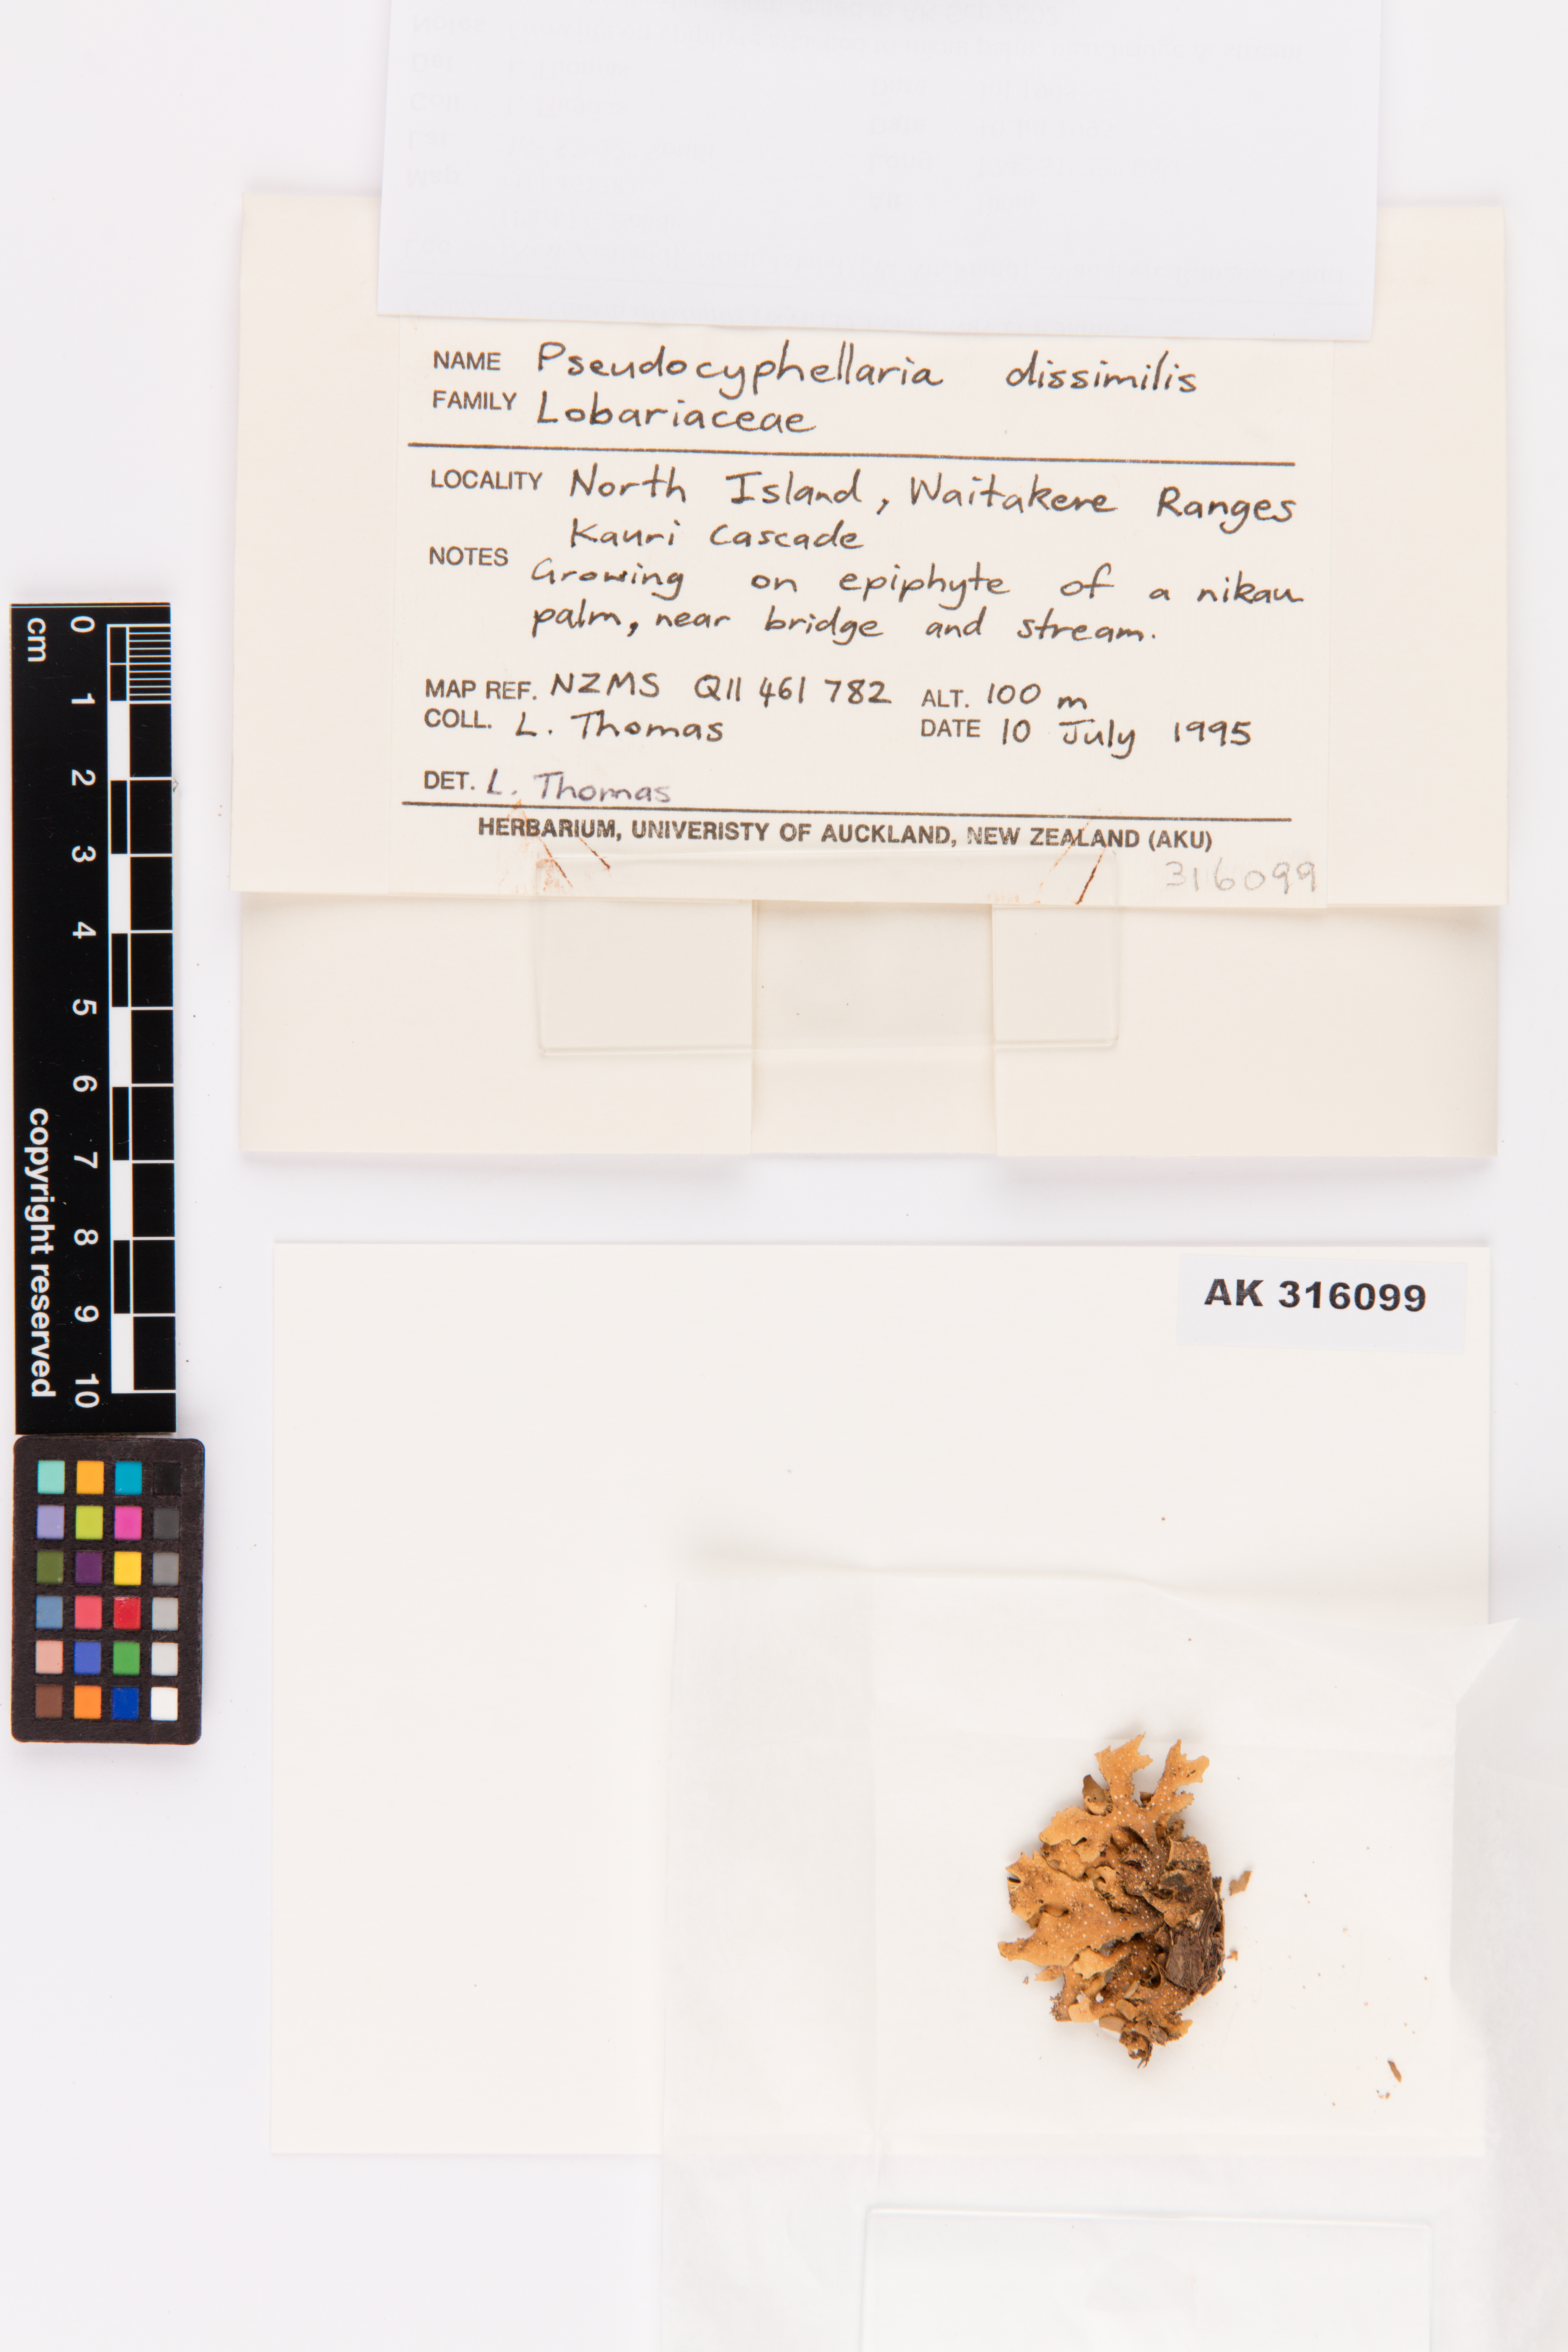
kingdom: Fungi
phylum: Ascomycota
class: Lecanoromycetes
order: Peltigerales
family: Lobariaceae
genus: Pseudocyphellaria
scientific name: Pseudocyphellaria dissimilis
